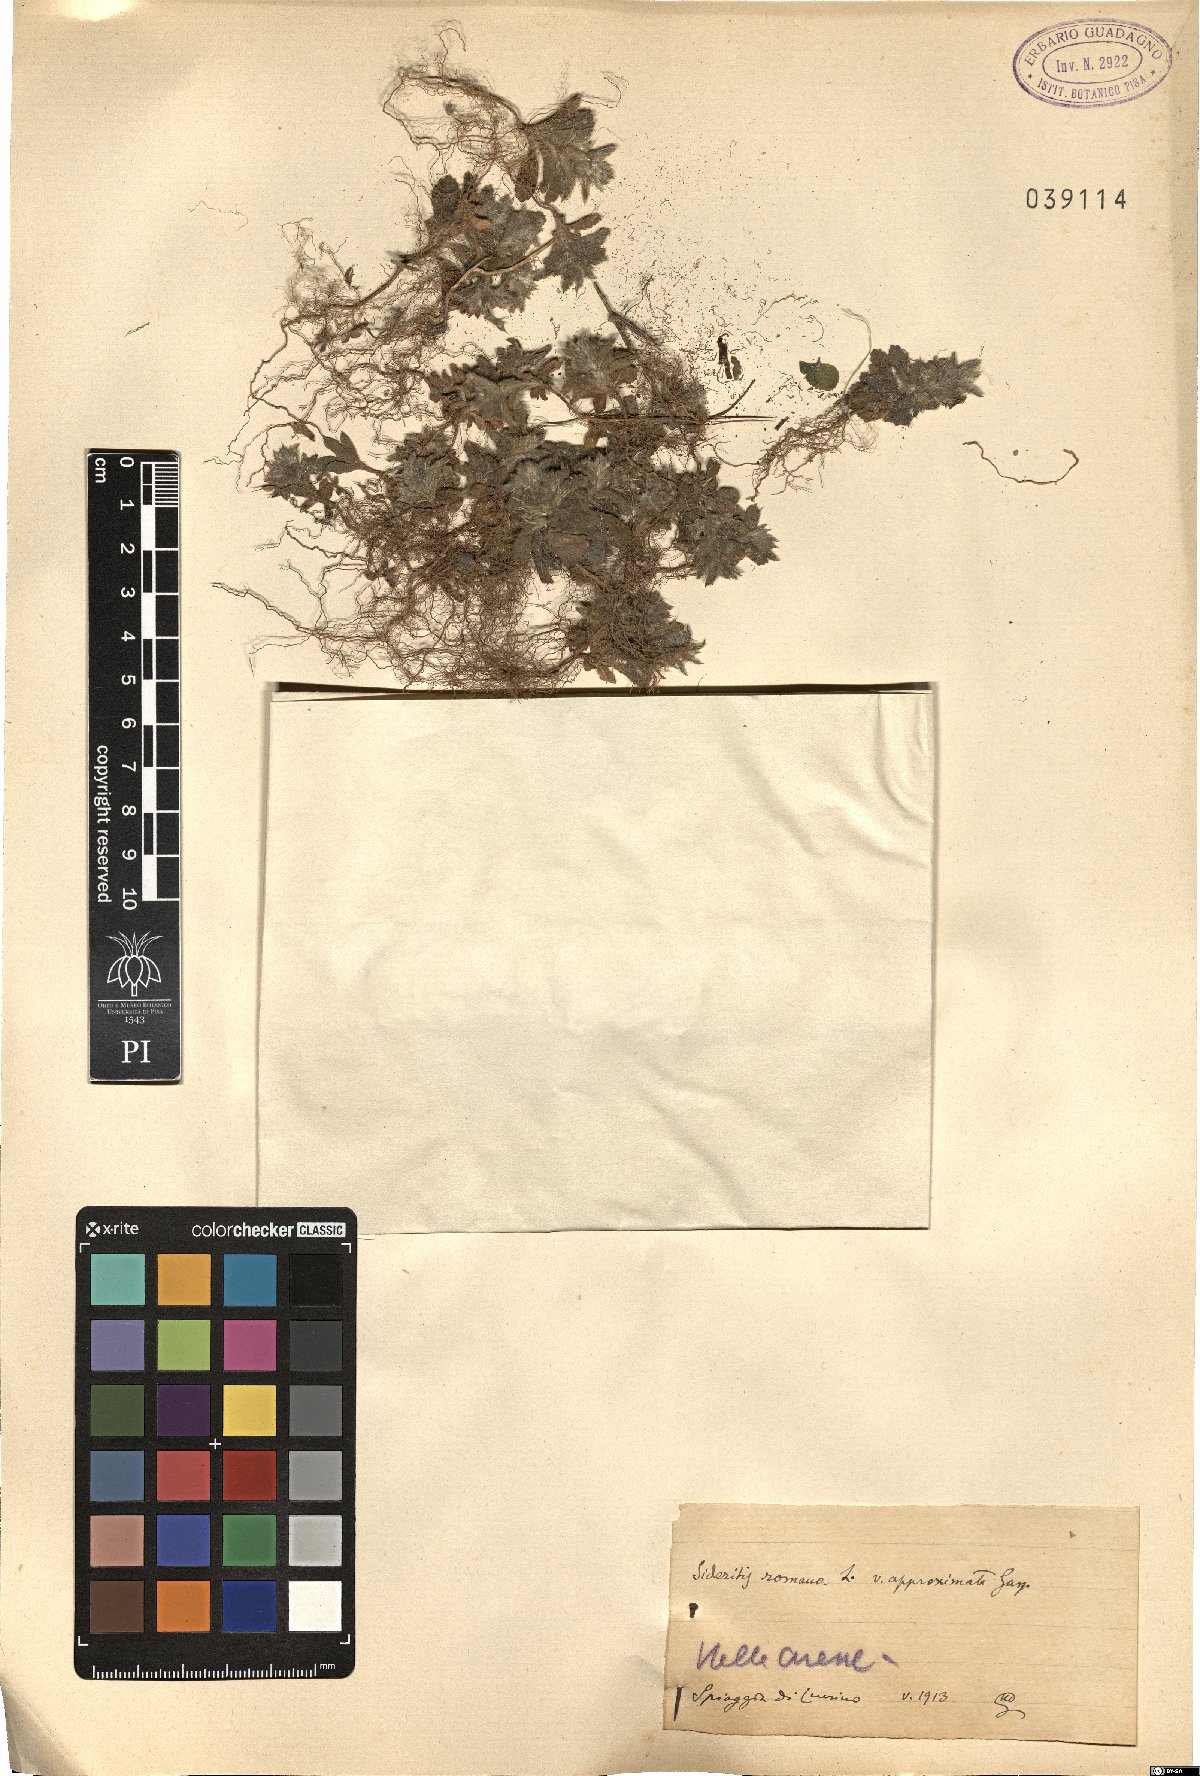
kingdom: Plantae
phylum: Tracheophyta
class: Magnoliopsida
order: Lamiales
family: Lamiaceae
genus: Sideritis
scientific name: Sideritis romana
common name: Simplebeak ironwort
